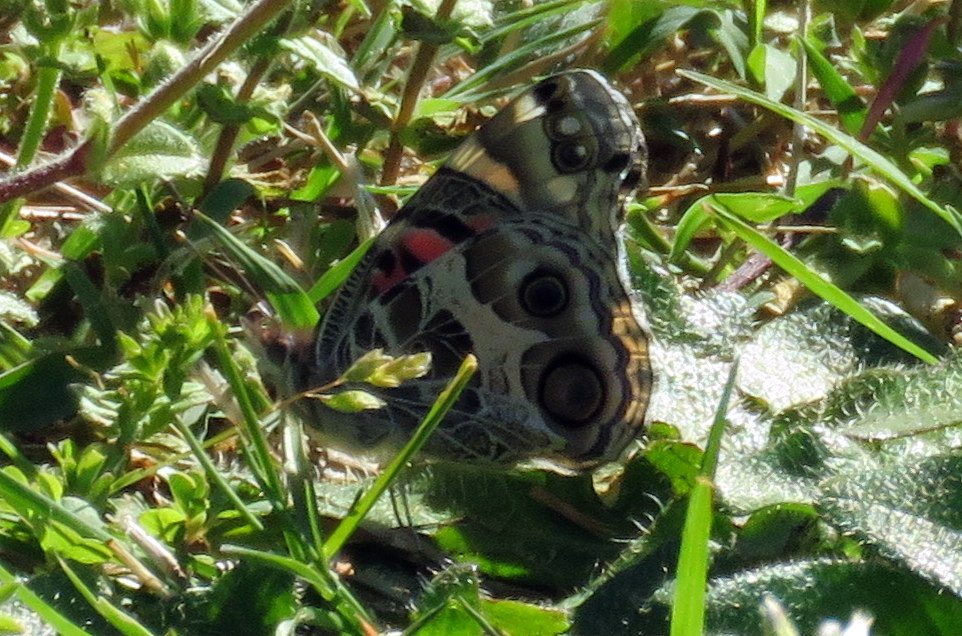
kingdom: Animalia
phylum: Arthropoda
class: Insecta
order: Lepidoptera
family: Nymphalidae
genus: Vanessa
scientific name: Vanessa virginiensis
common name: American Lady
